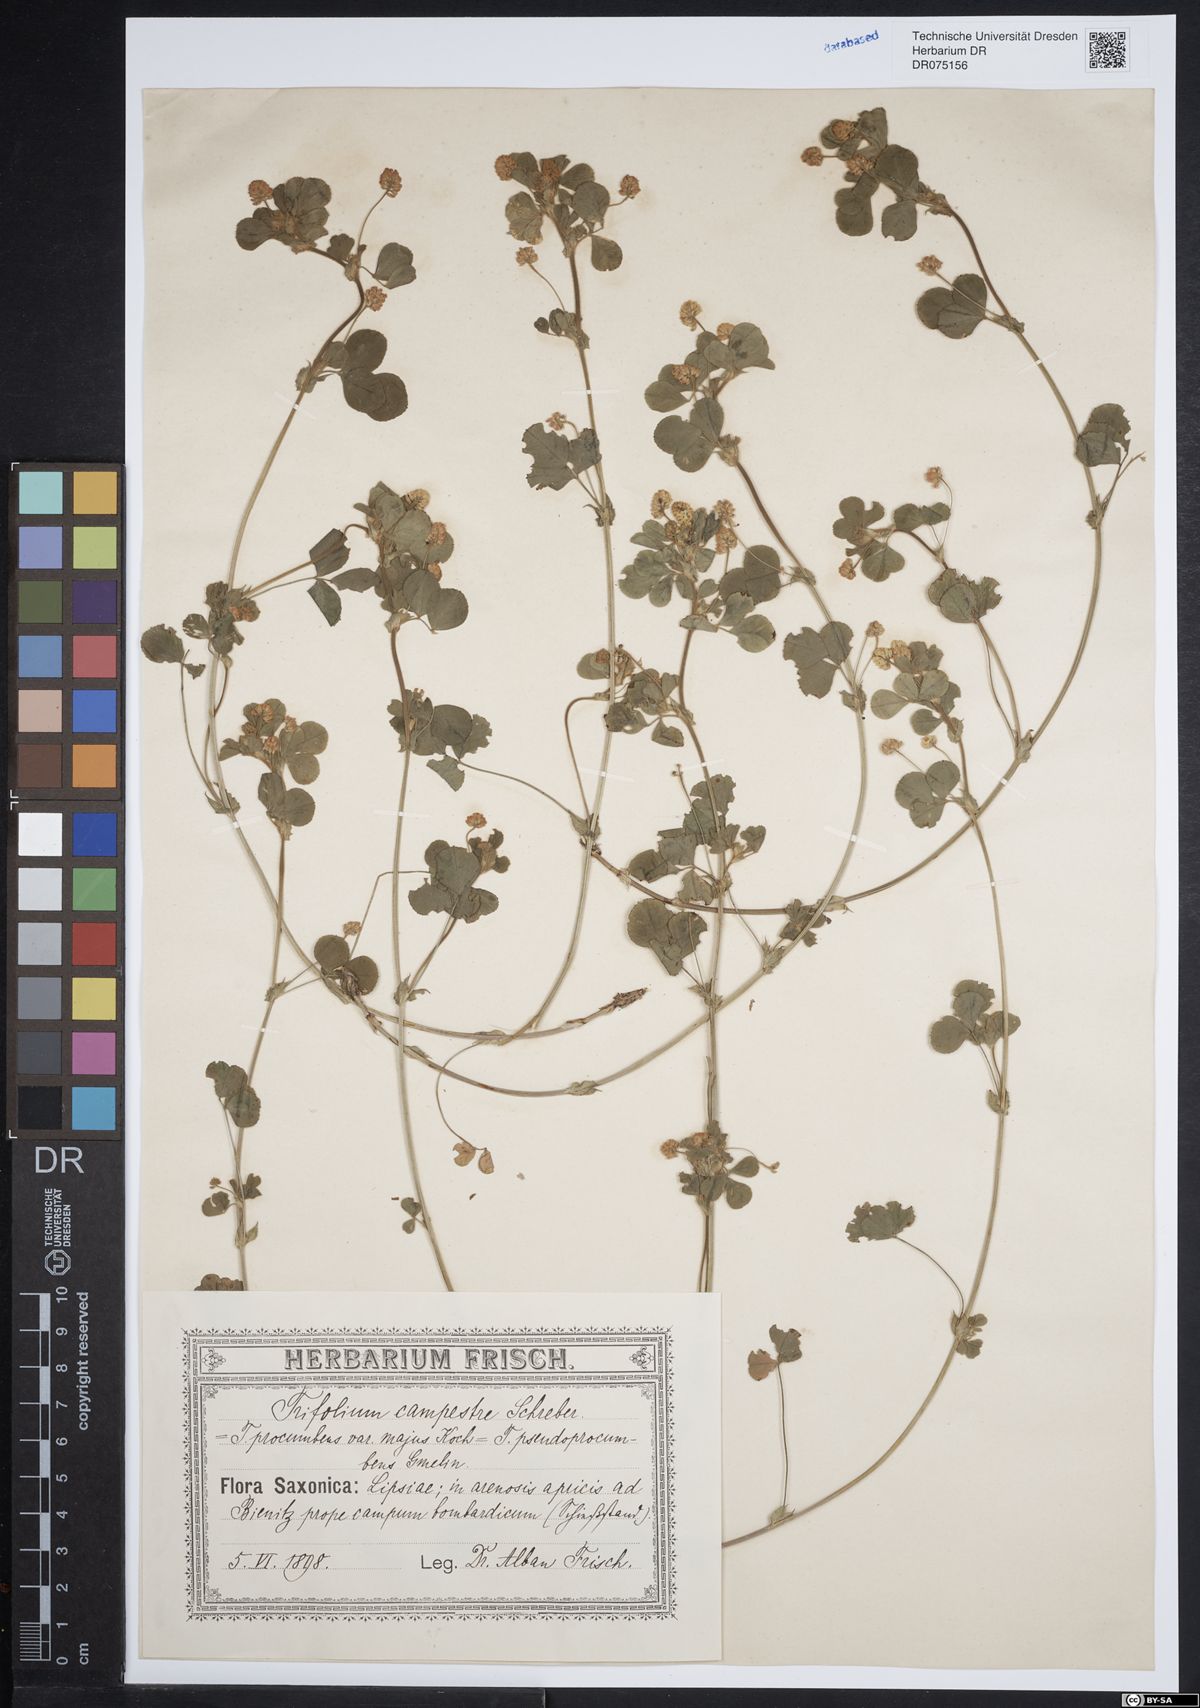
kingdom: Plantae
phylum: Tracheophyta
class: Magnoliopsida
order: Fabales
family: Fabaceae
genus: Trifolium
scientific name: Trifolium campestre
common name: Field clover
